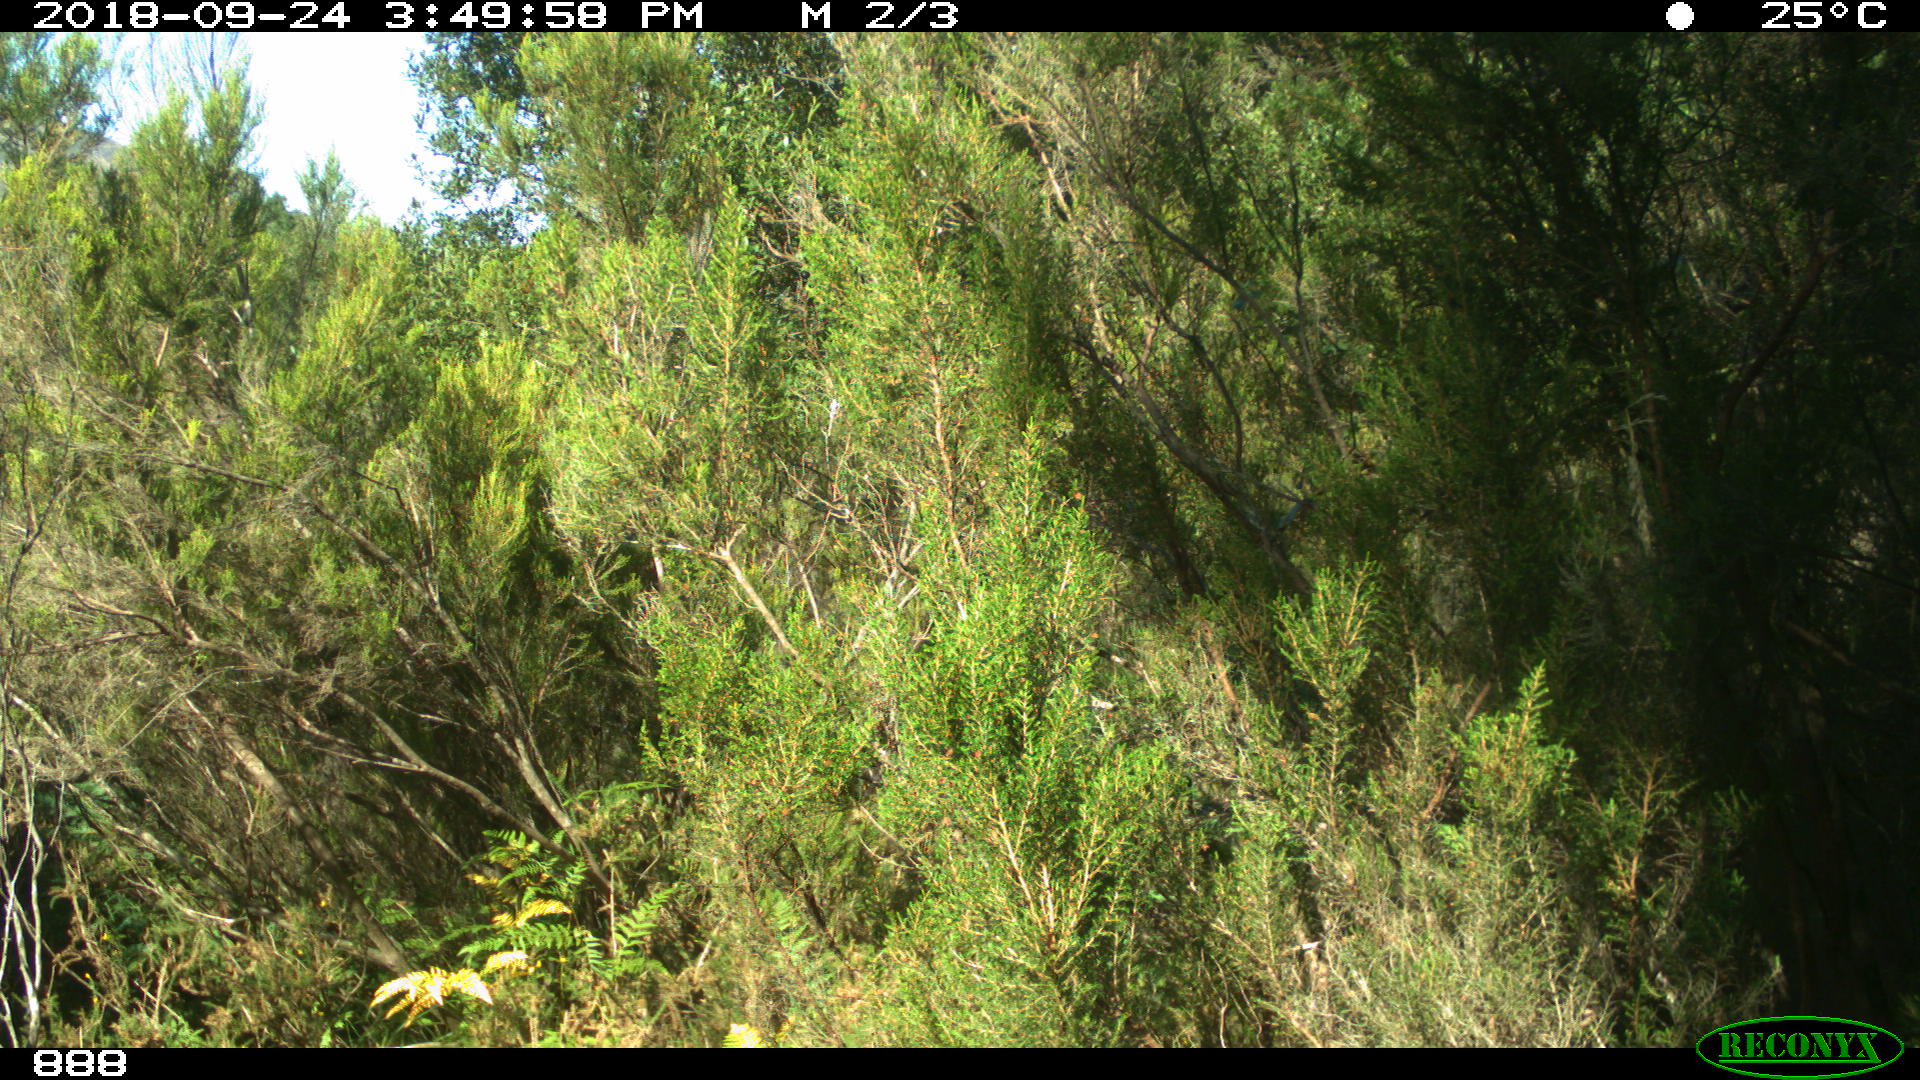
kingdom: Animalia
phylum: Chordata
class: Mammalia
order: Artiodactyla
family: Bovidae
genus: Bos
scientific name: Bos taurus
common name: Domesticated cattle
